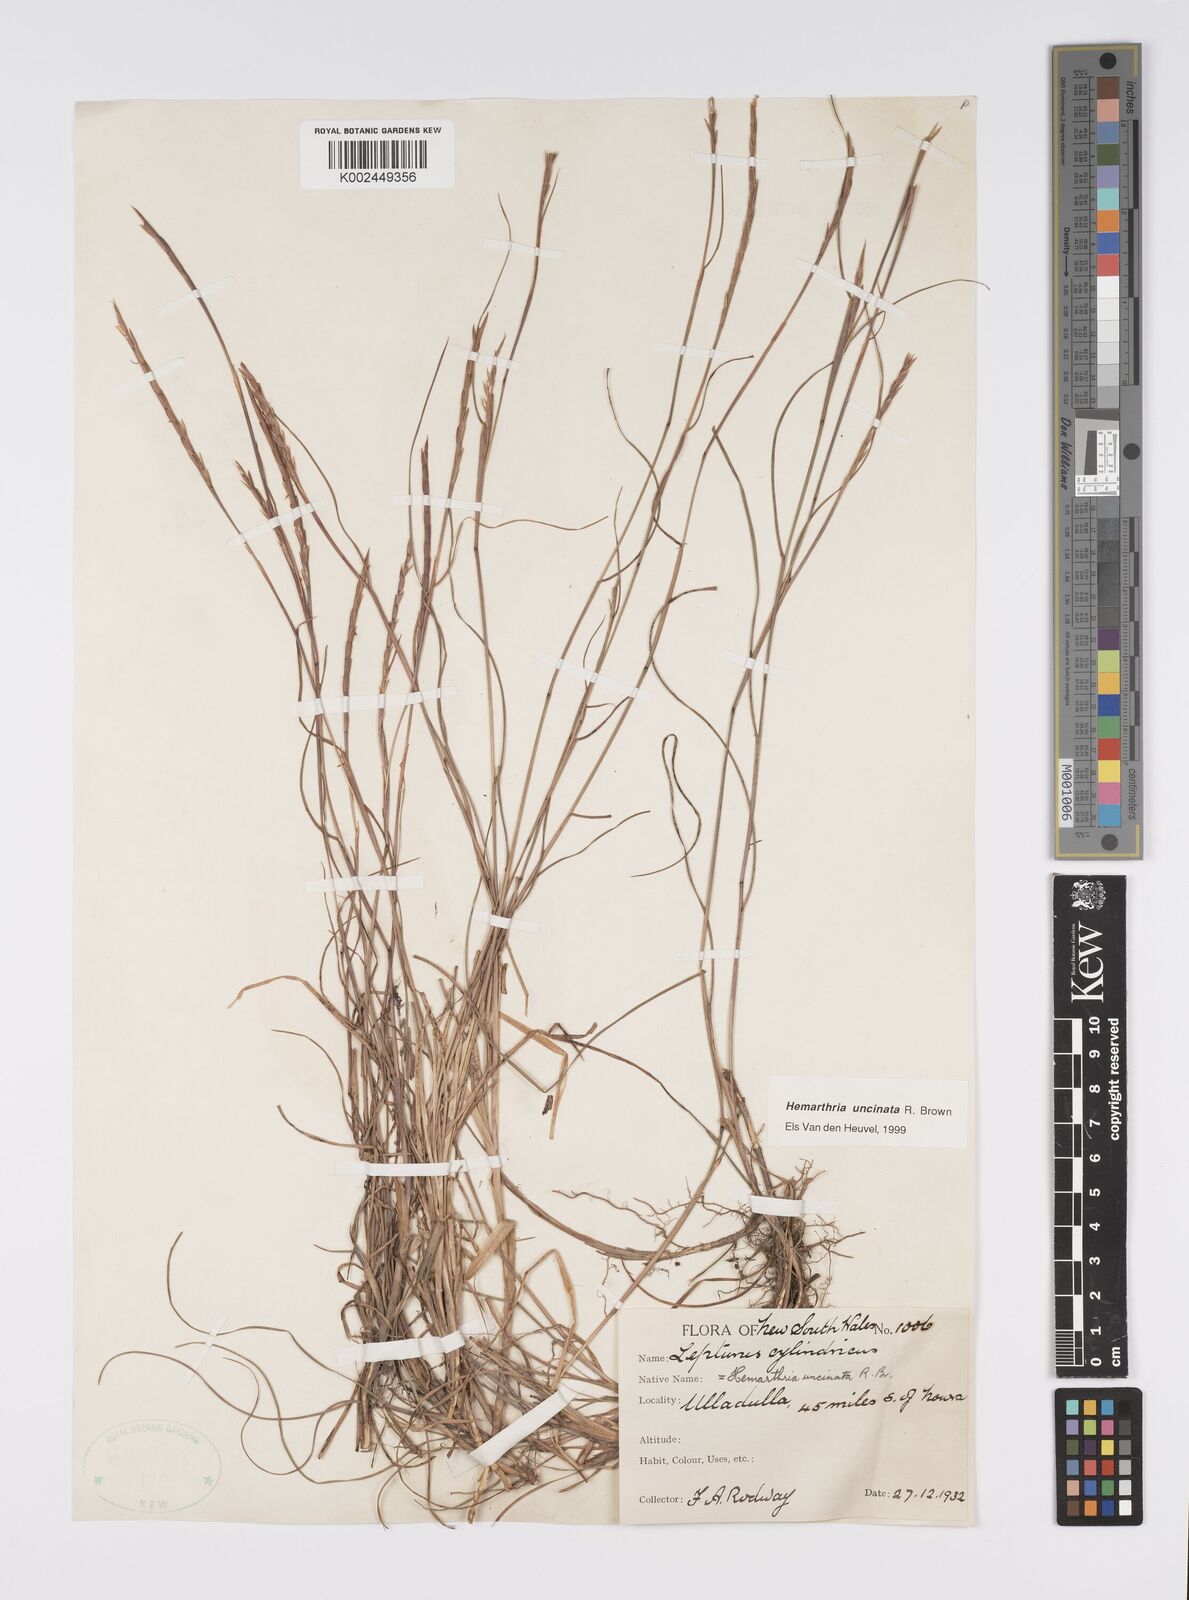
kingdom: Plantae
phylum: Tracheophyta
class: Liliopsida
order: Poales
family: Poaceae
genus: Hemarthria
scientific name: Hemarthria uncinata
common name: Matgrass
